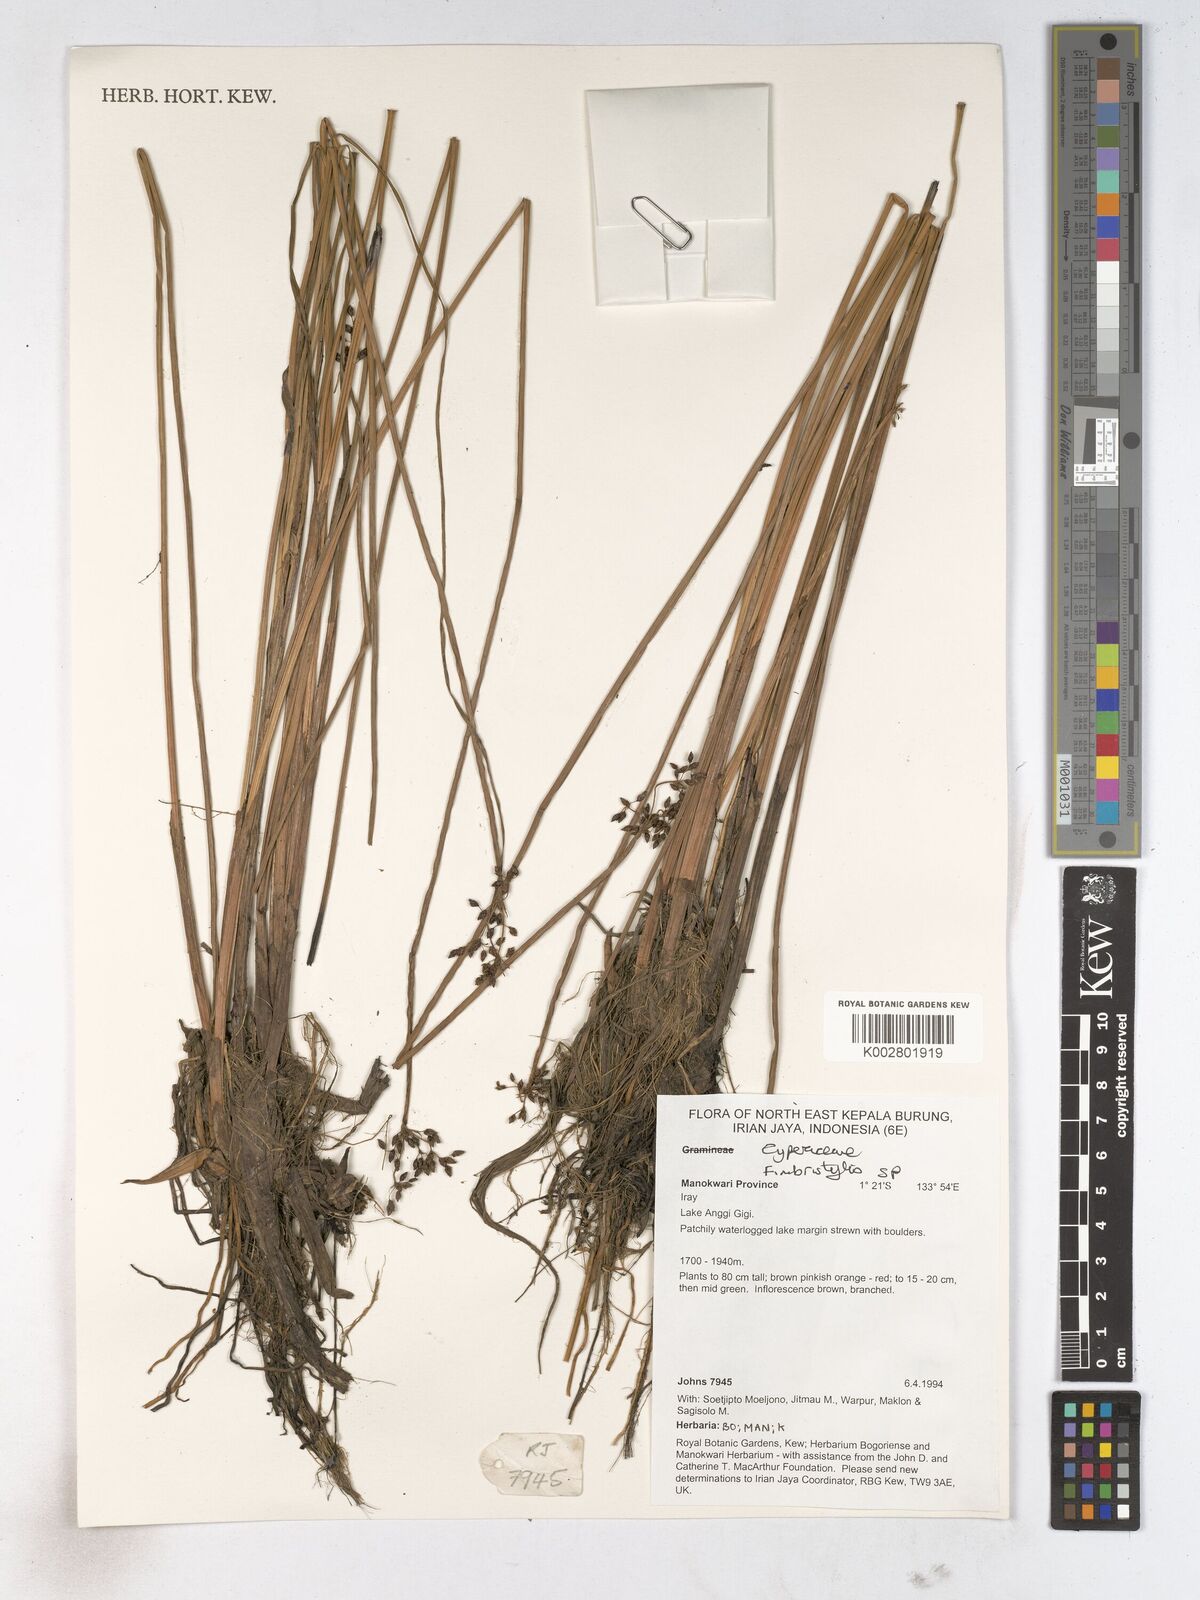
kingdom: Plantae
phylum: Tracheophyta
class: Liliopsida
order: Poales
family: Cyperaceae
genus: Fimbristylis
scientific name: Fimbristylis
